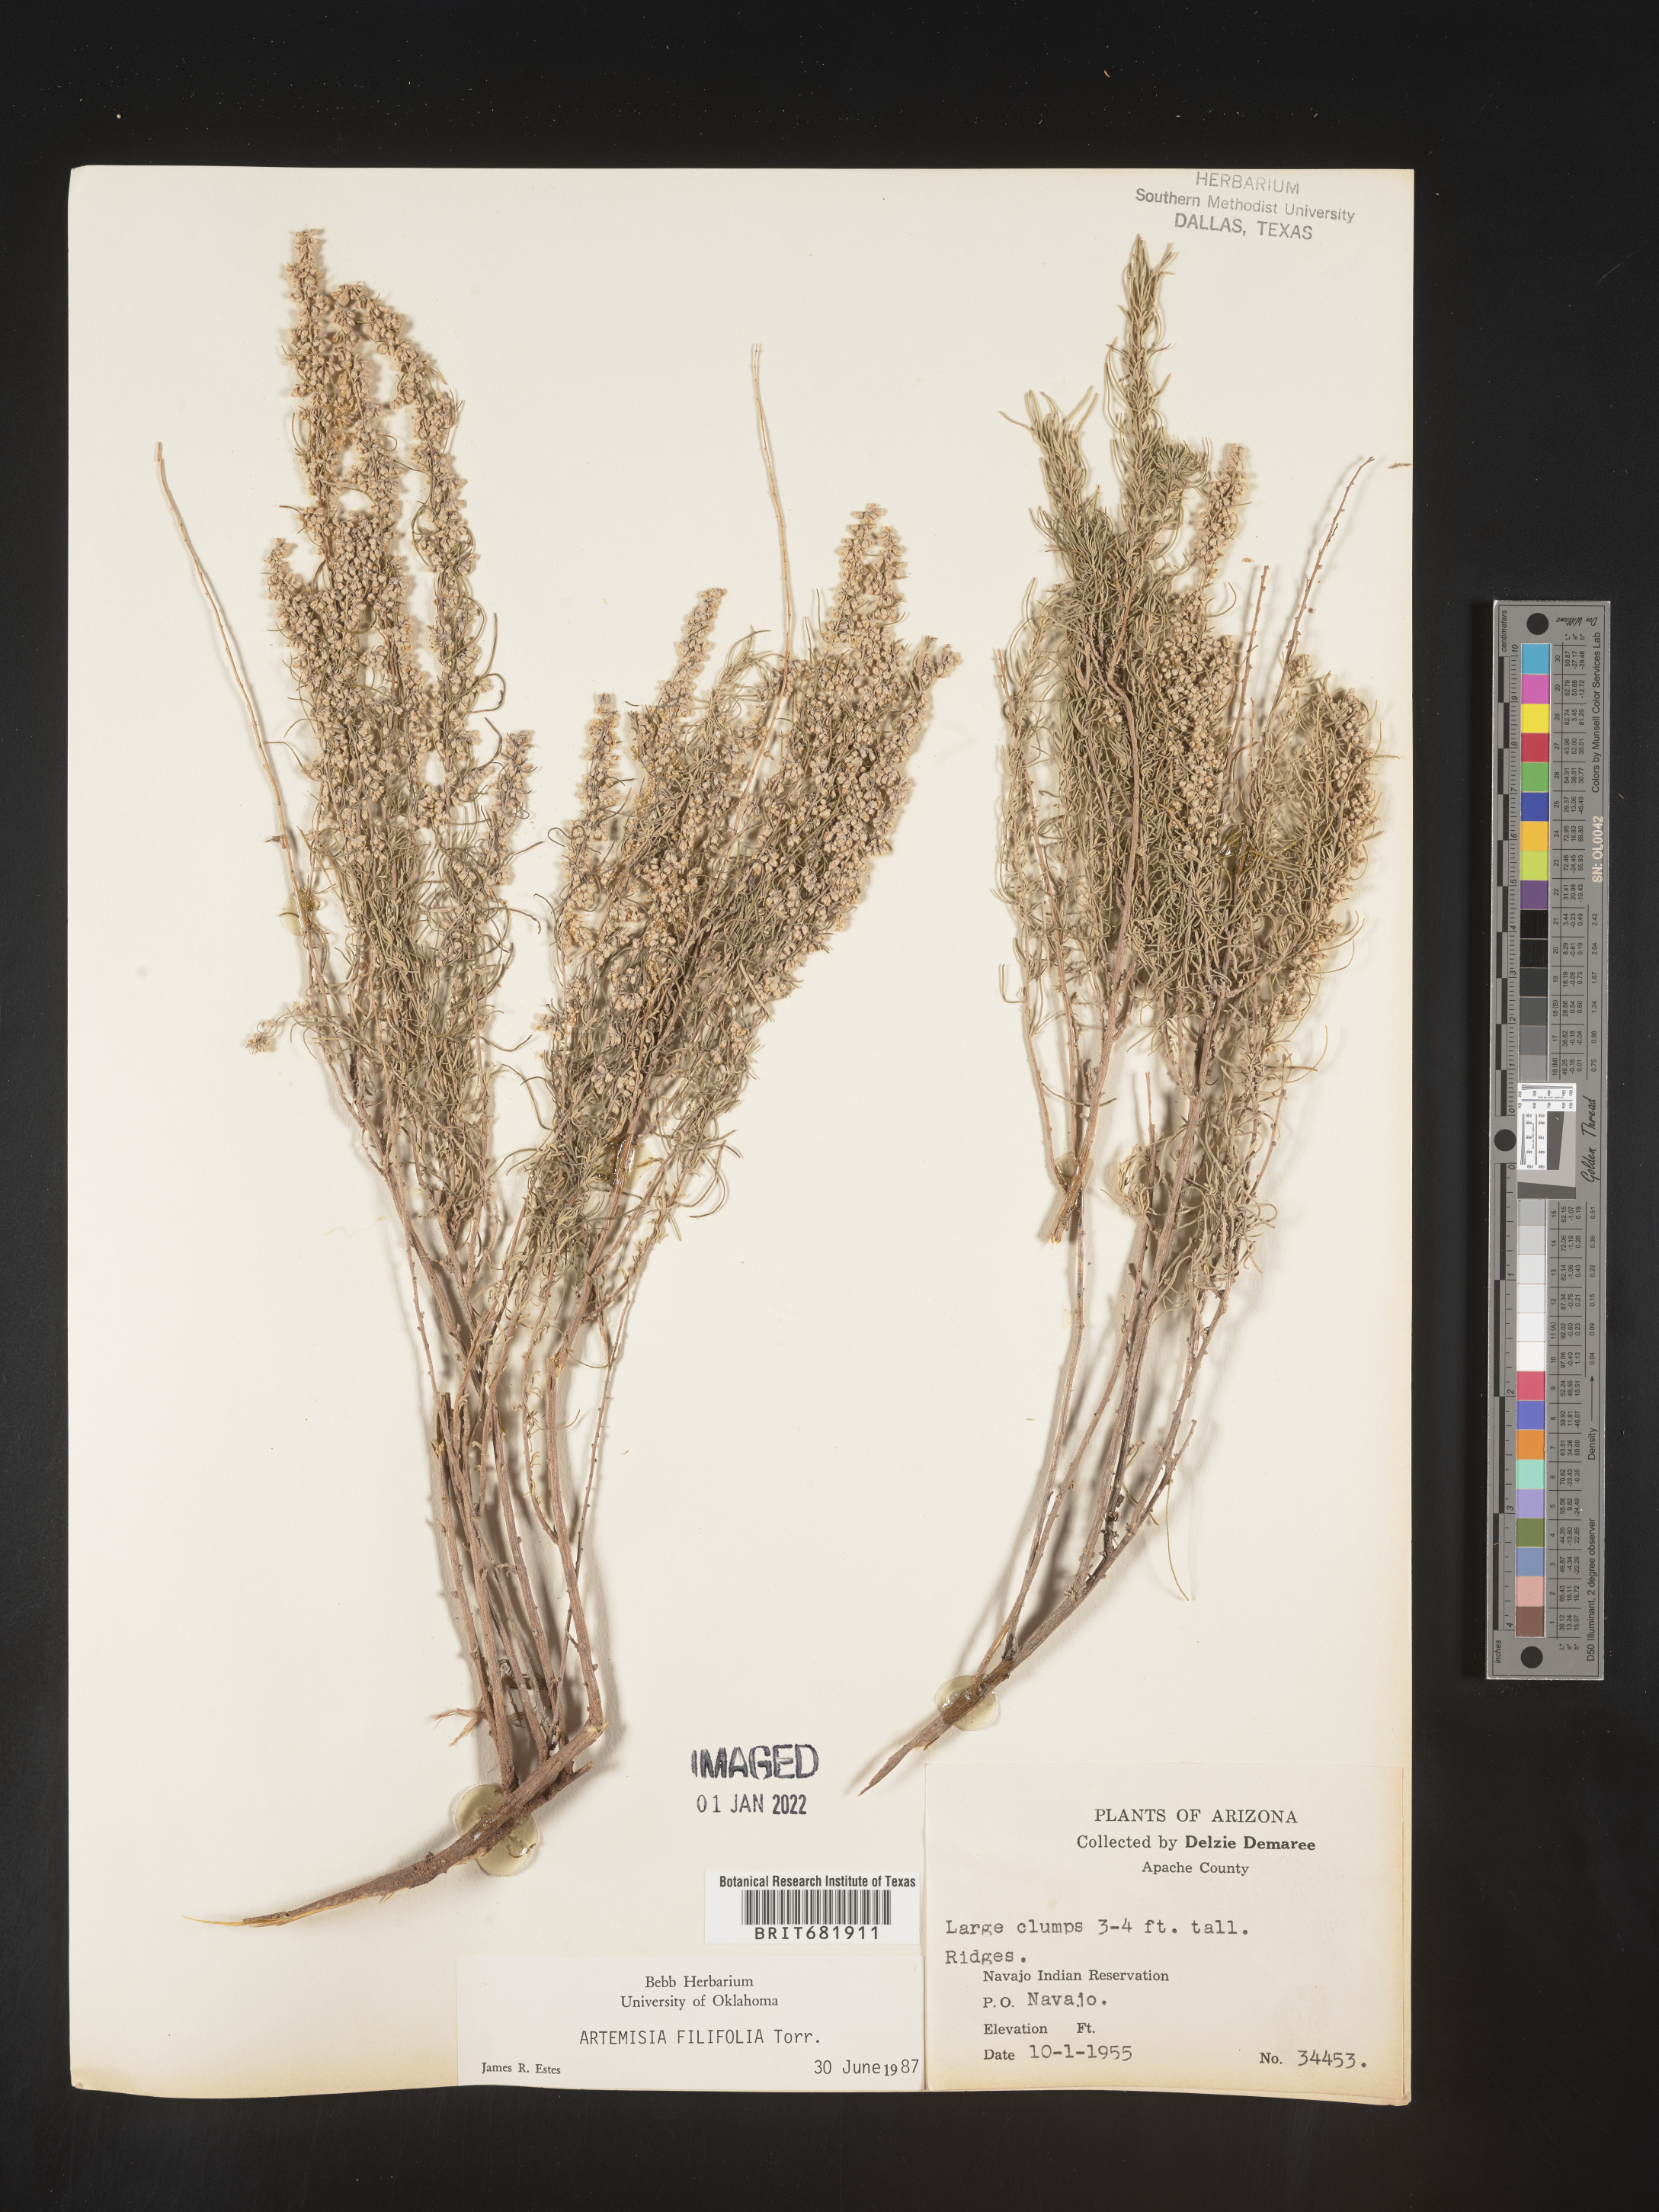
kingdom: Plantae
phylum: Tracheophyta
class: Magnoliopsida
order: Asterales
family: Asteraceae
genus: Artemisia
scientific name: Artemisia filifolia
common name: Sand-sage
